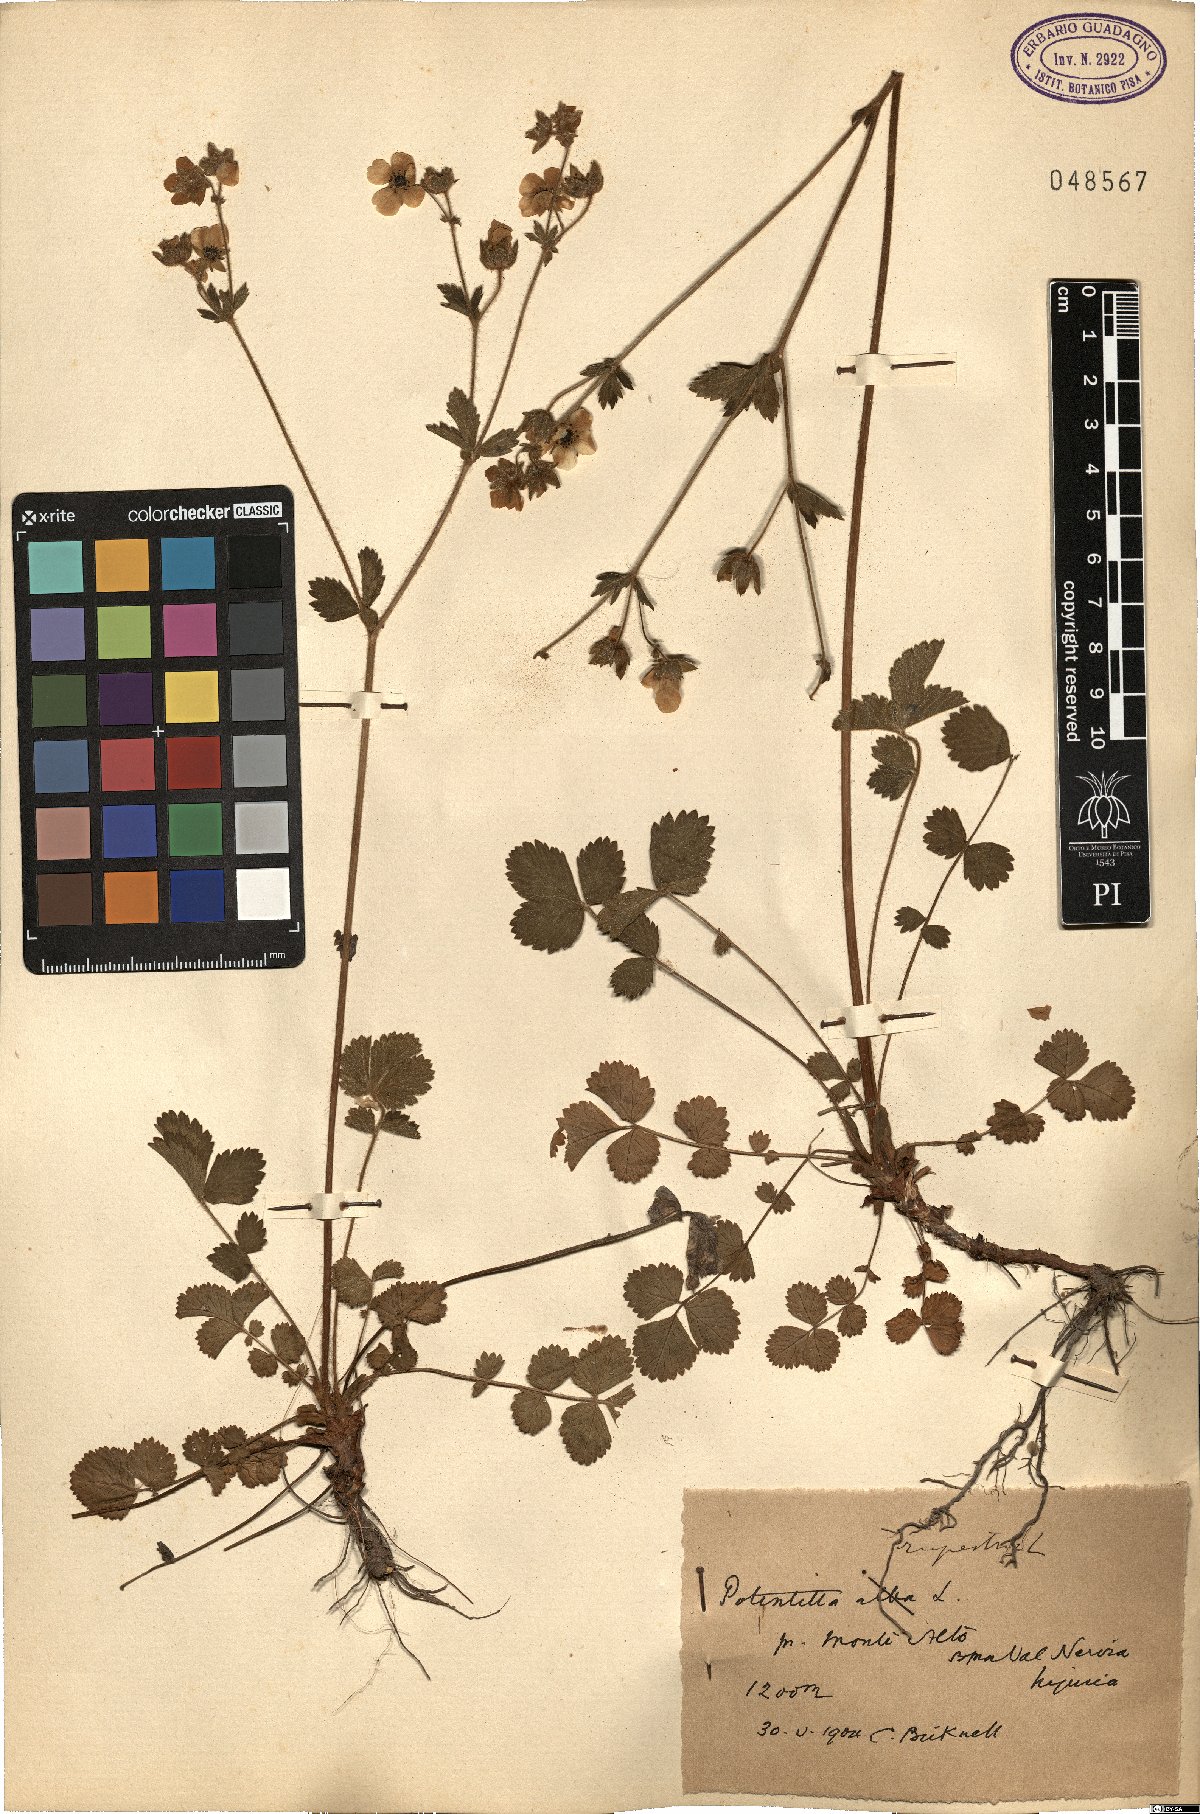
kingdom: Plantae
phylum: Tracheophyta
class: Magnoliopsida
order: Rosales
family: Rosaceae
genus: Drymocallis
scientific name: Drymocallis rupestris
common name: Rock cinquefoil
